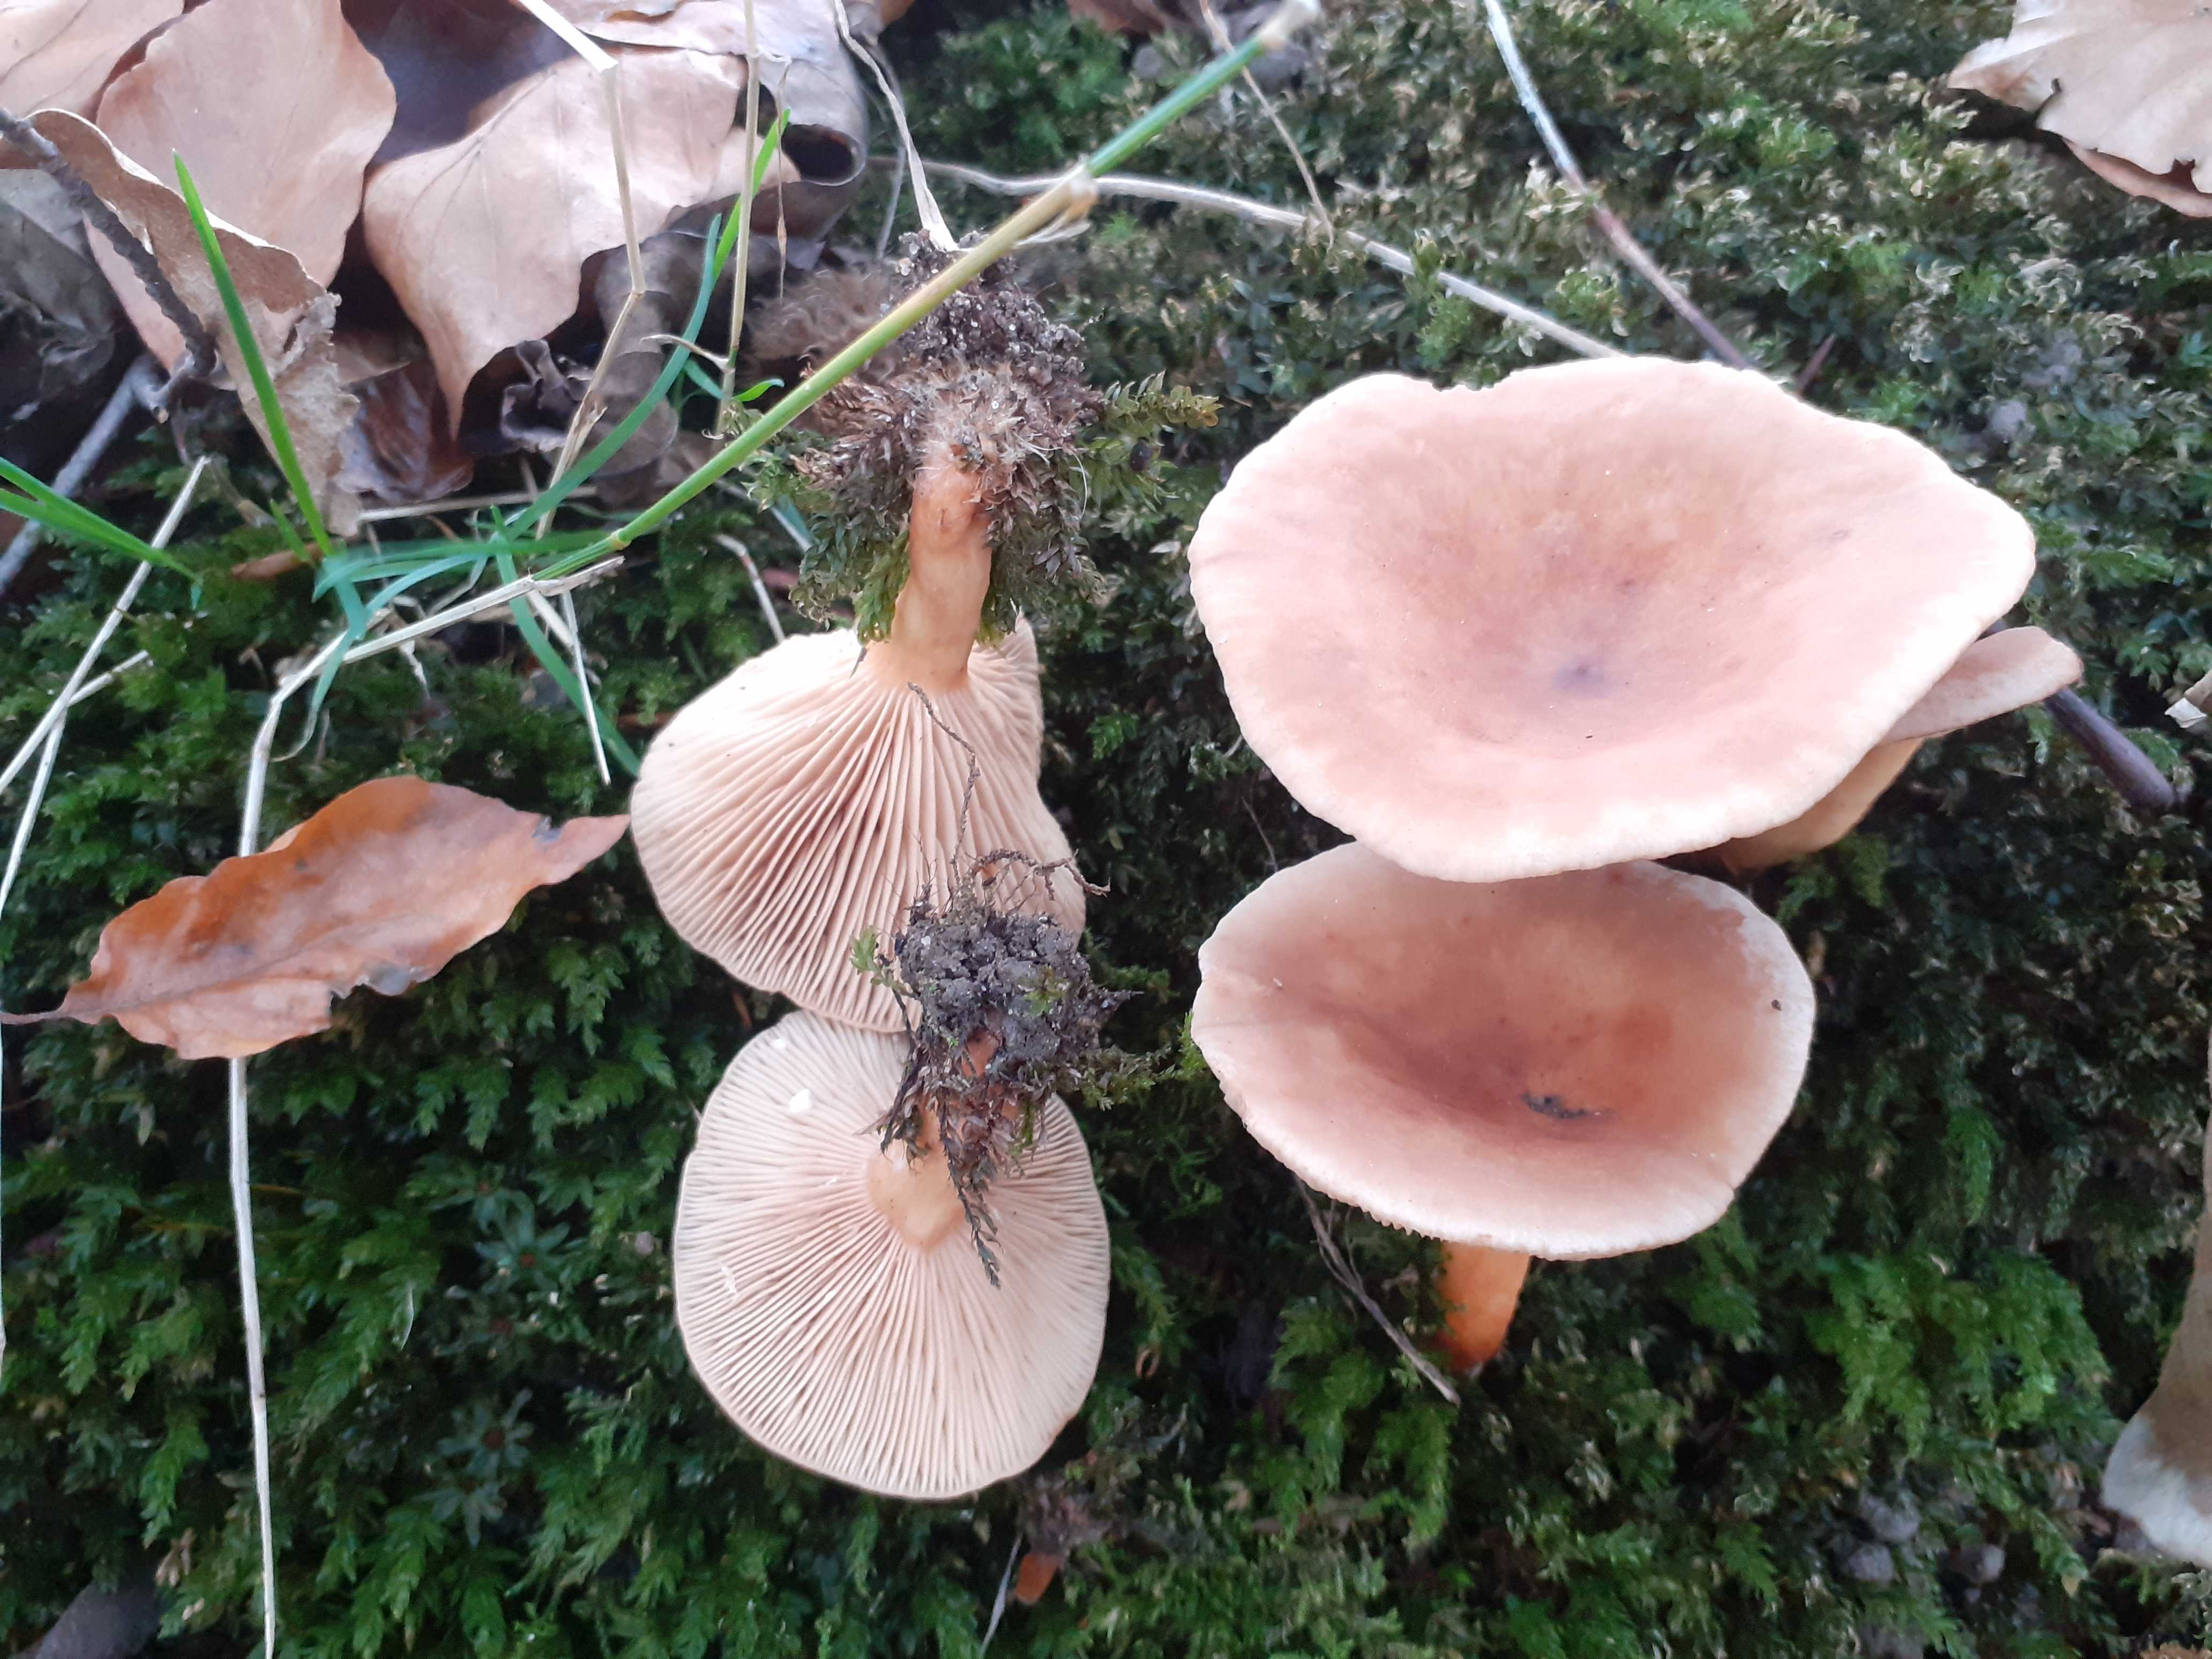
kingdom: Fungi
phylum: Basidiomycota
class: Agaricomycetes
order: Russulales
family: Russulaceae
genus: Lactarius
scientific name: Lactarius subdulcis
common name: sødlig mælkehat
